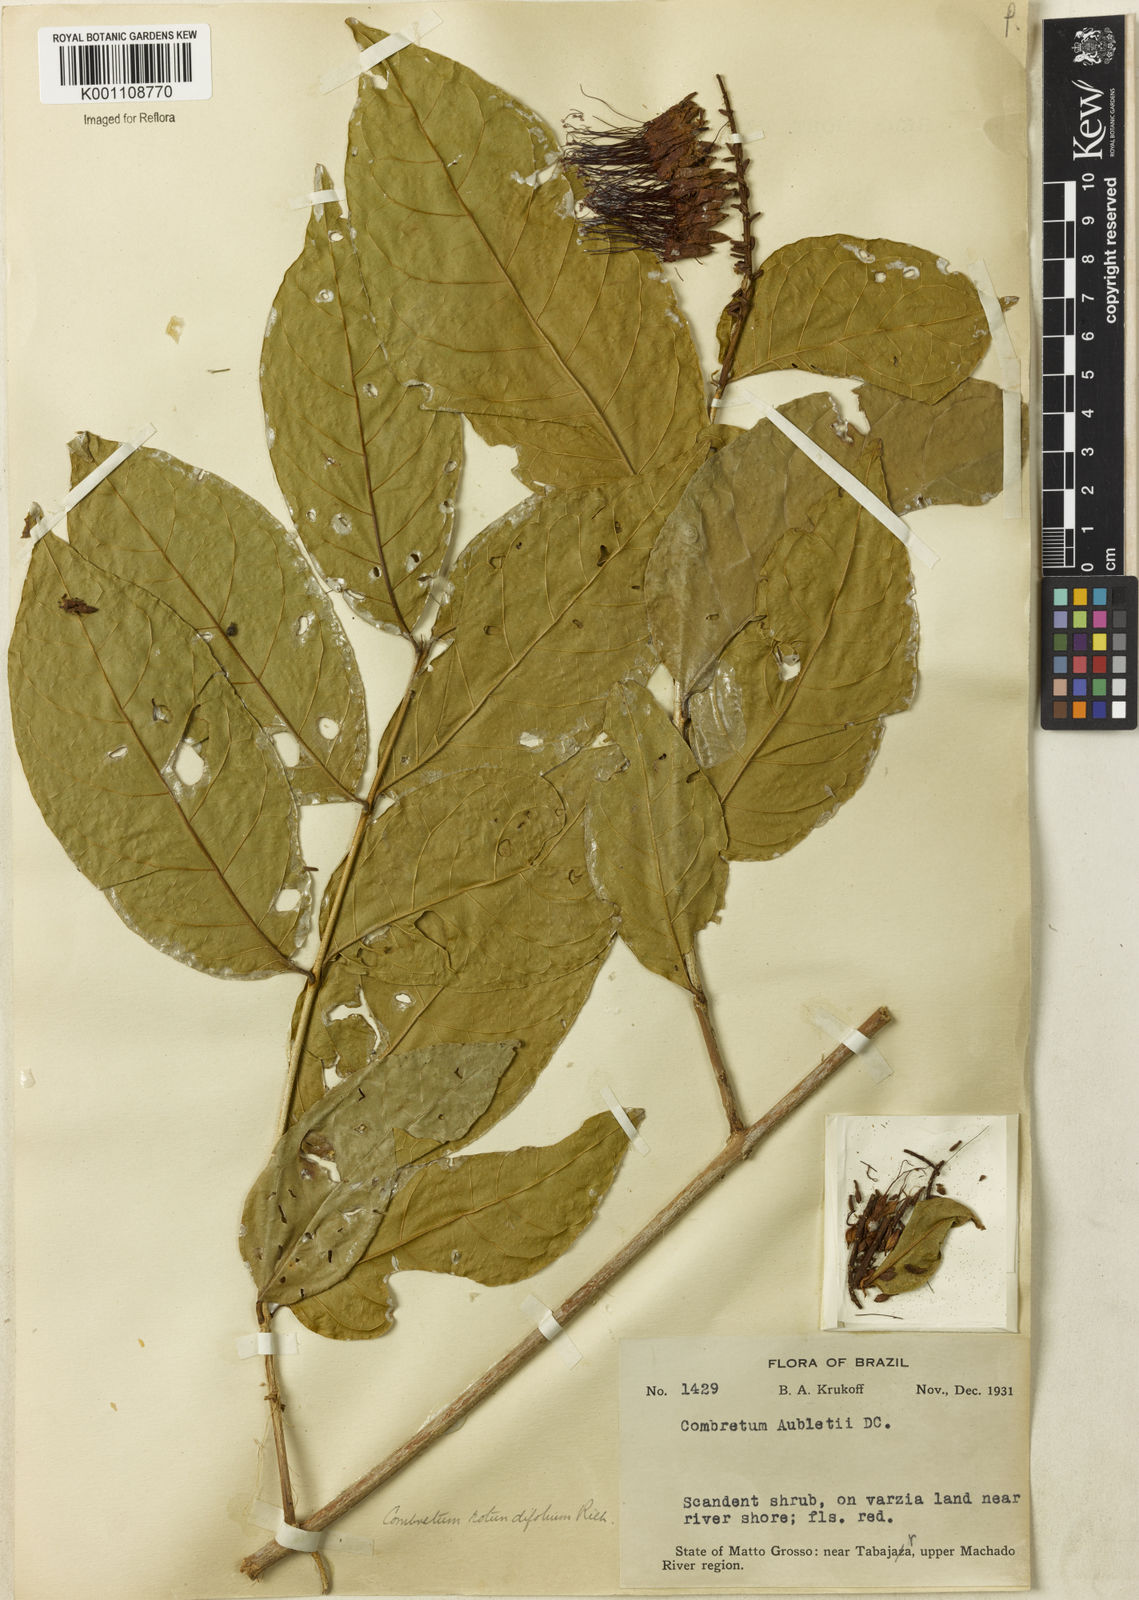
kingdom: Plantae
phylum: Tracheophyta
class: Magnoliopsida
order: Myrtales
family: Combretaceae
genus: Combretum
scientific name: Combretum rotundifolium
